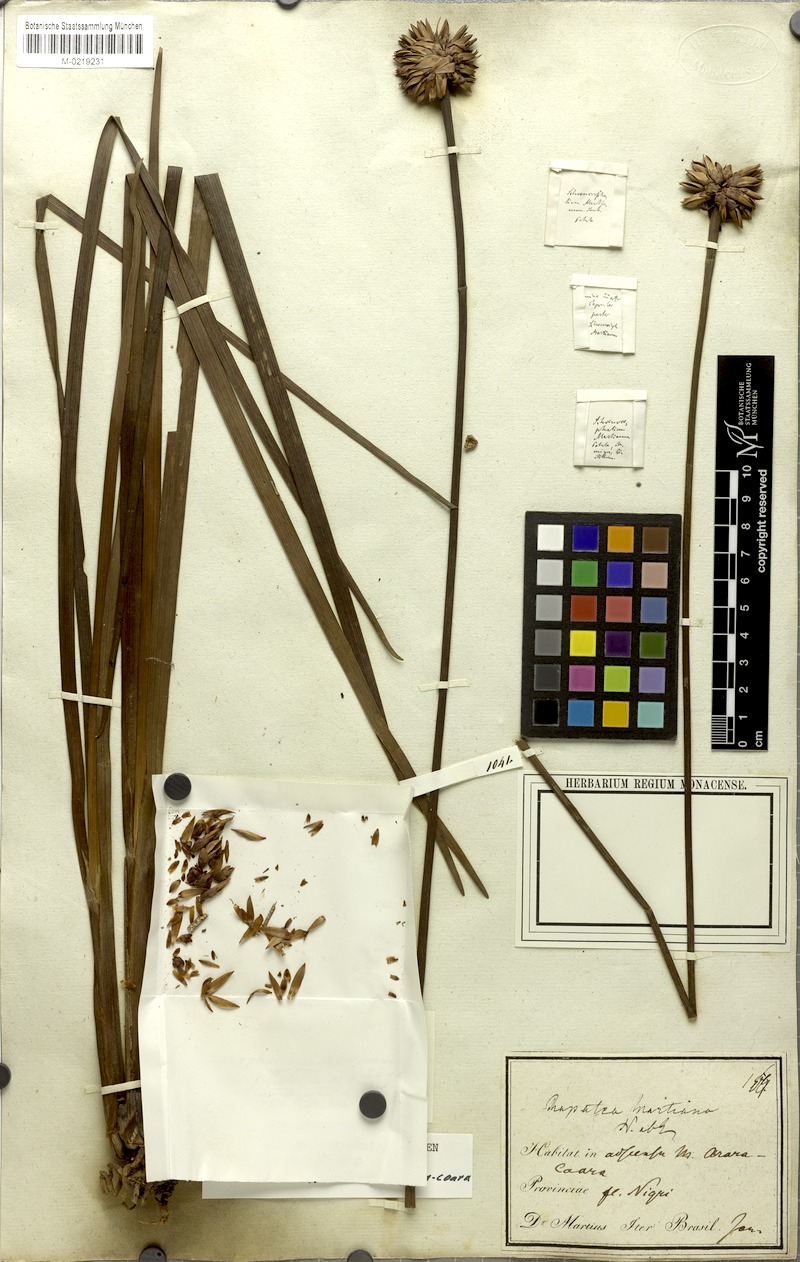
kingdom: Plantae
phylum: Tracheophyta
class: Liliopsida
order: Poales
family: Rapateaceae
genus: Schoenocephalium
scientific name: Schoenocephalium martianum
